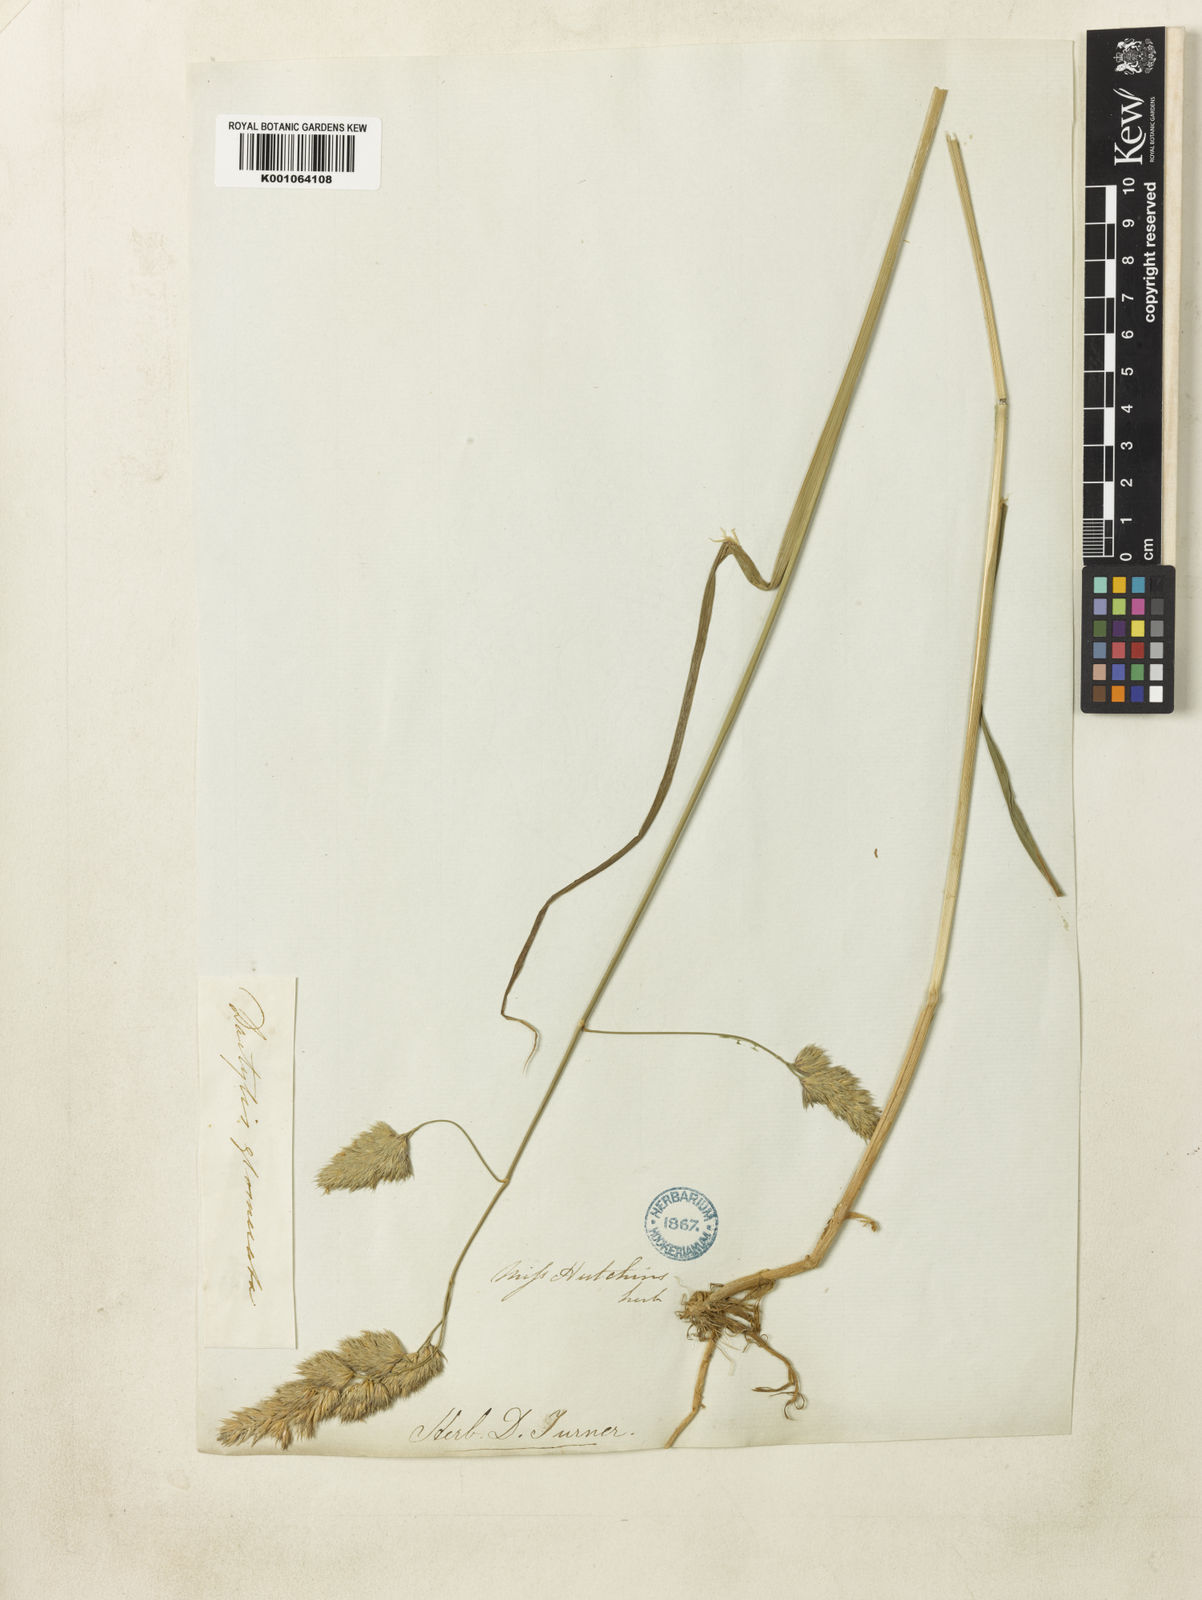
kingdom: Plantae
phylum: Tracheophyta
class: Liliopsida
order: Poales
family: Poaceae
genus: Dactylis
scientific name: Dactylis glomerata
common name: Orchardgrass
